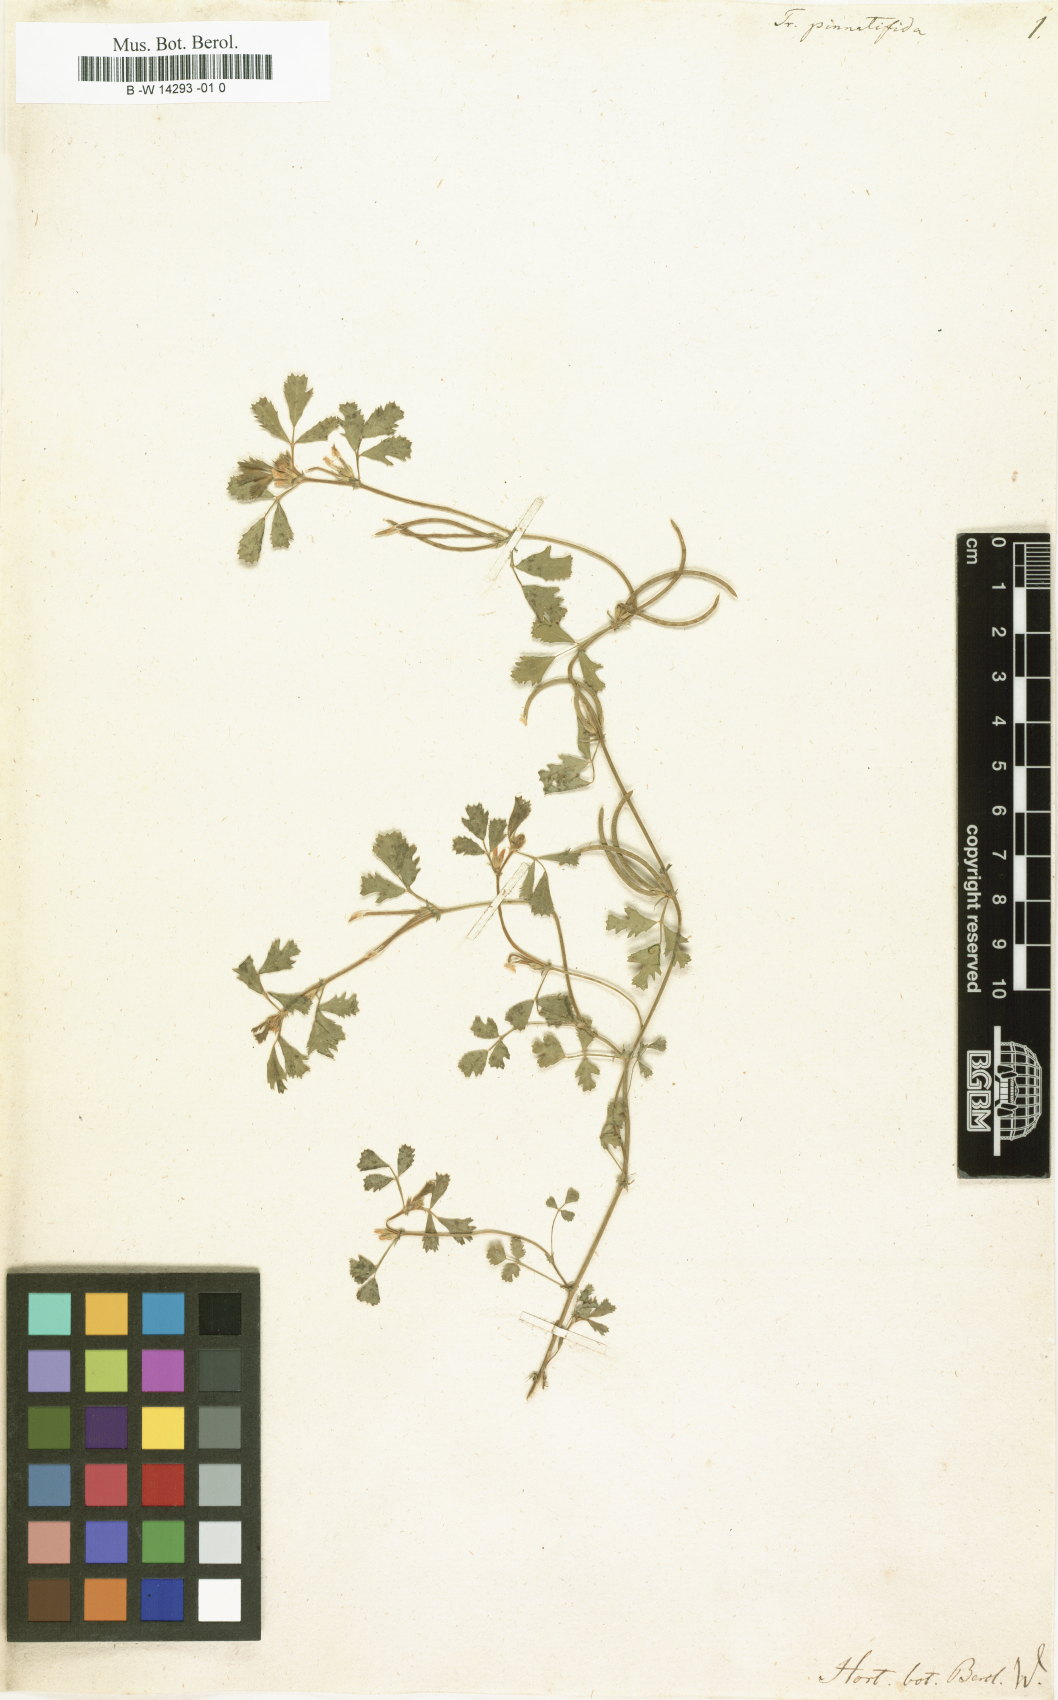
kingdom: Plantae
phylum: Tracheophyta
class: Magnoliopsida
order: Fabales
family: Fabaceae
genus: Medicago
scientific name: Medicago polyceratia
